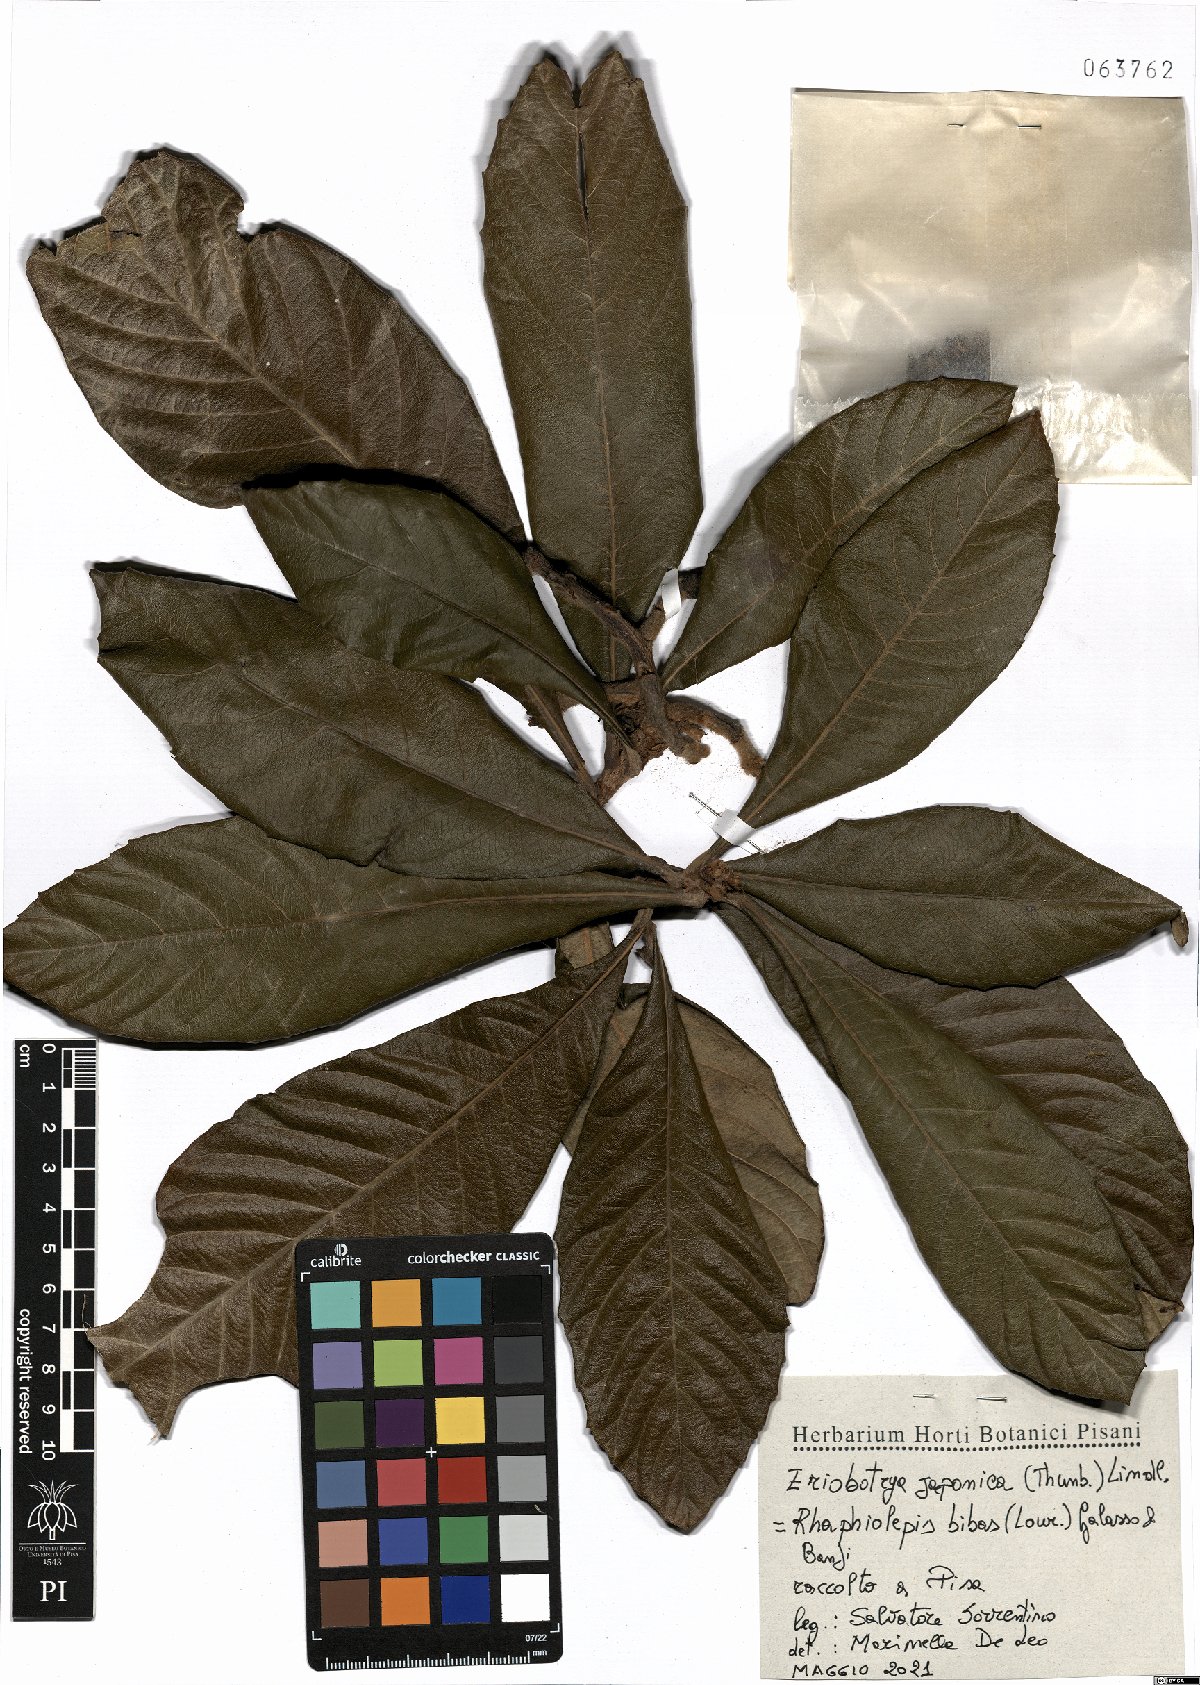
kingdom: Plantae
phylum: Tracheophyta
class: Magnoliopsida
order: Rosales
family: Rosaceae
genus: Rhaphiolepis
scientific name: Rhaphiolepis bibas
